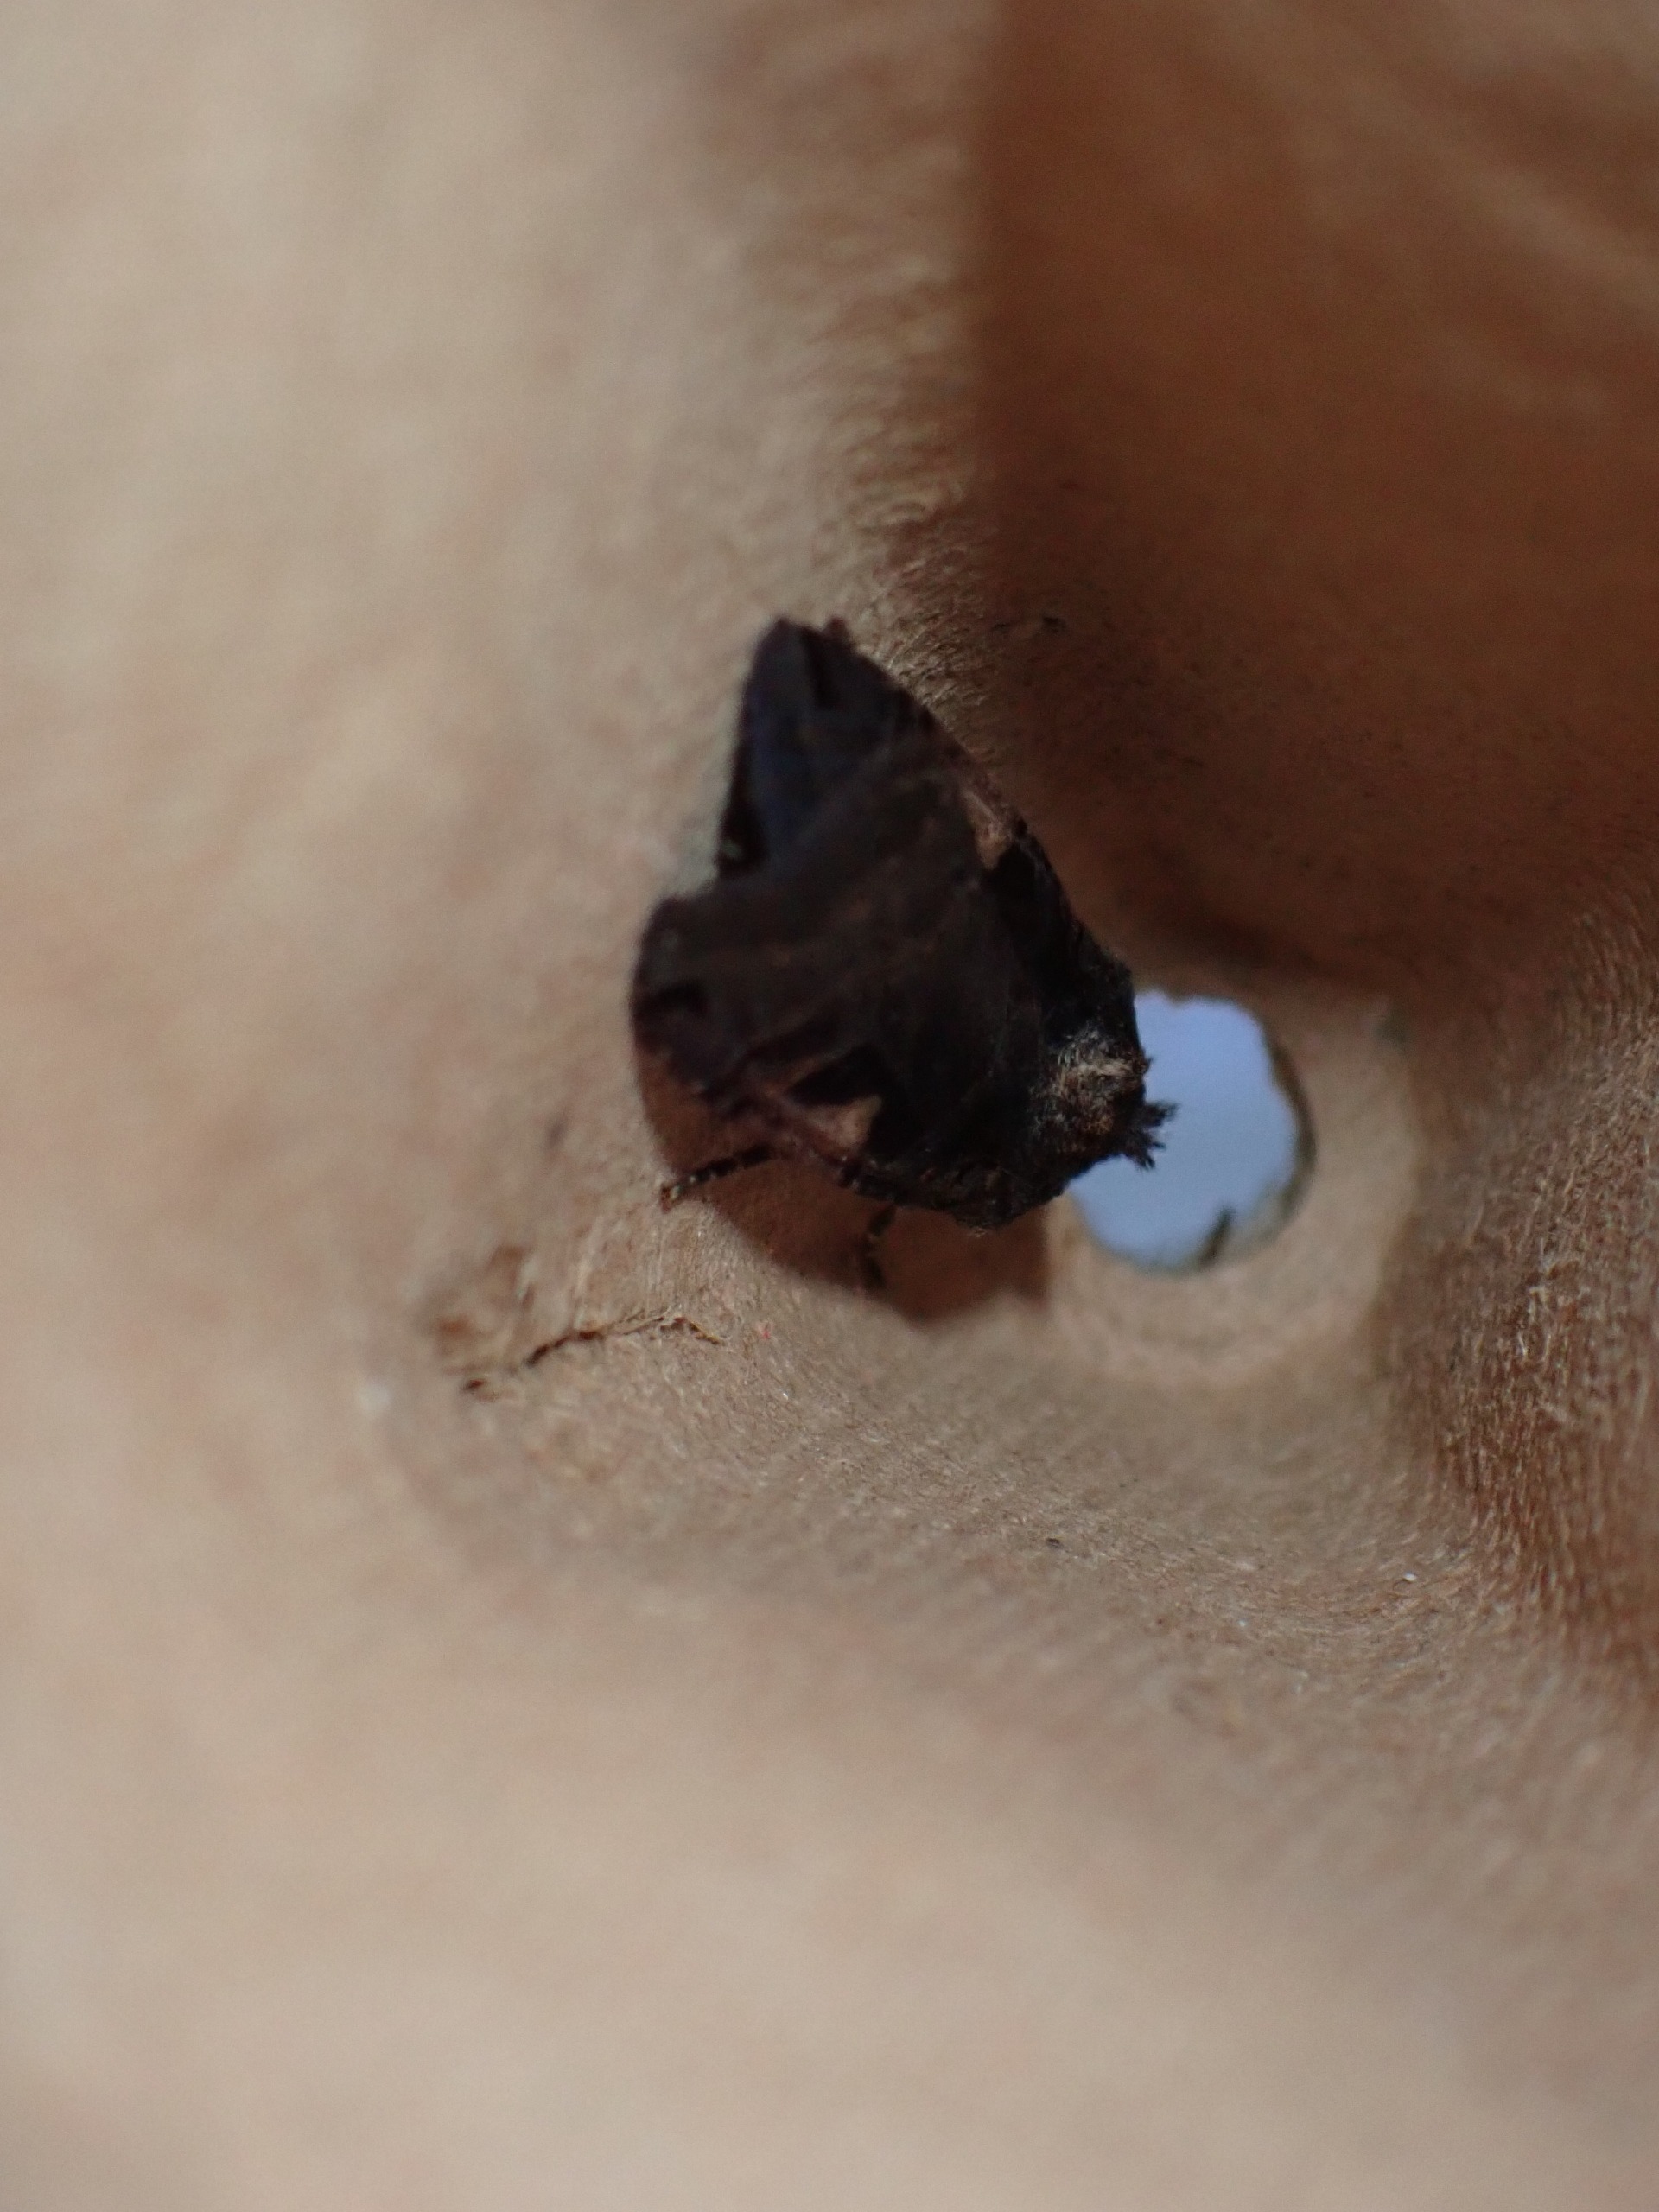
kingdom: Animalia
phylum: Arthropoda
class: Insecta
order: Lepidoptera
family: Noctuidae
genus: Xestia
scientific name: Xestia c-nigrum
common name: Det sorte c
